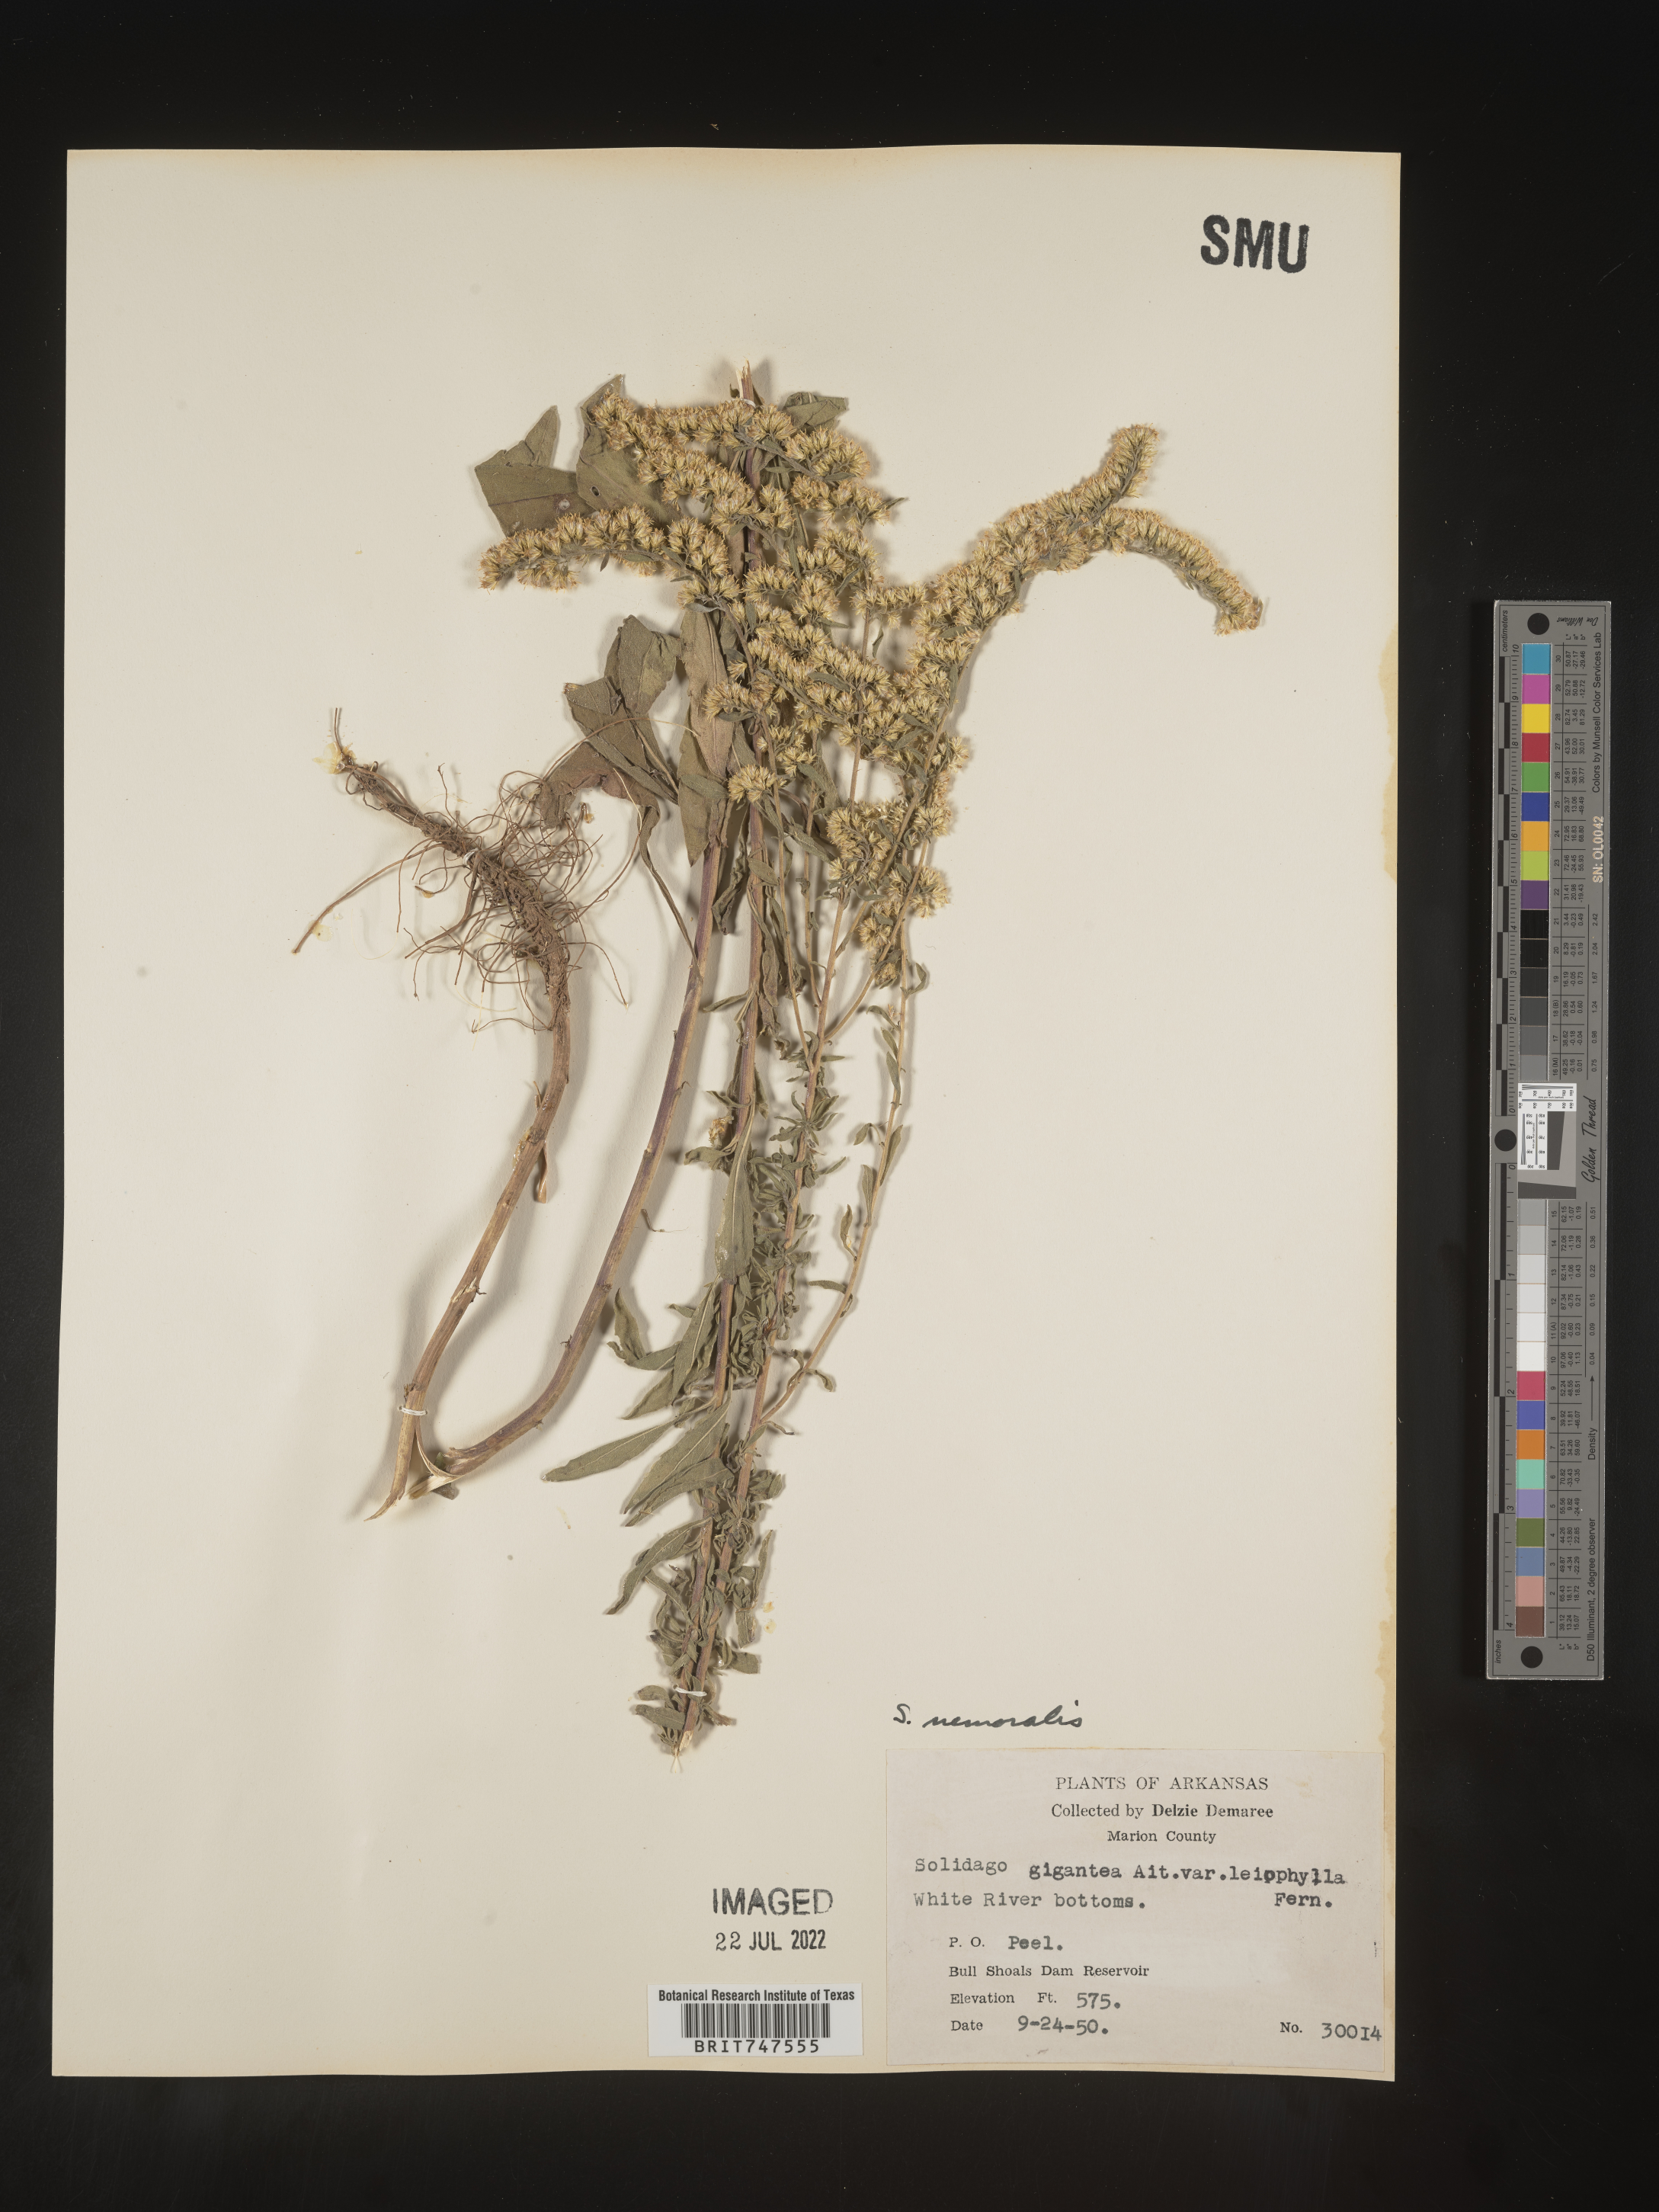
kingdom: Plantae
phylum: Tracheophyta
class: Magnoliopsida
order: Asterales
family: Asteraceae
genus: Solidago
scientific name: Solidago nemoralis
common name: Grey goldenrod
